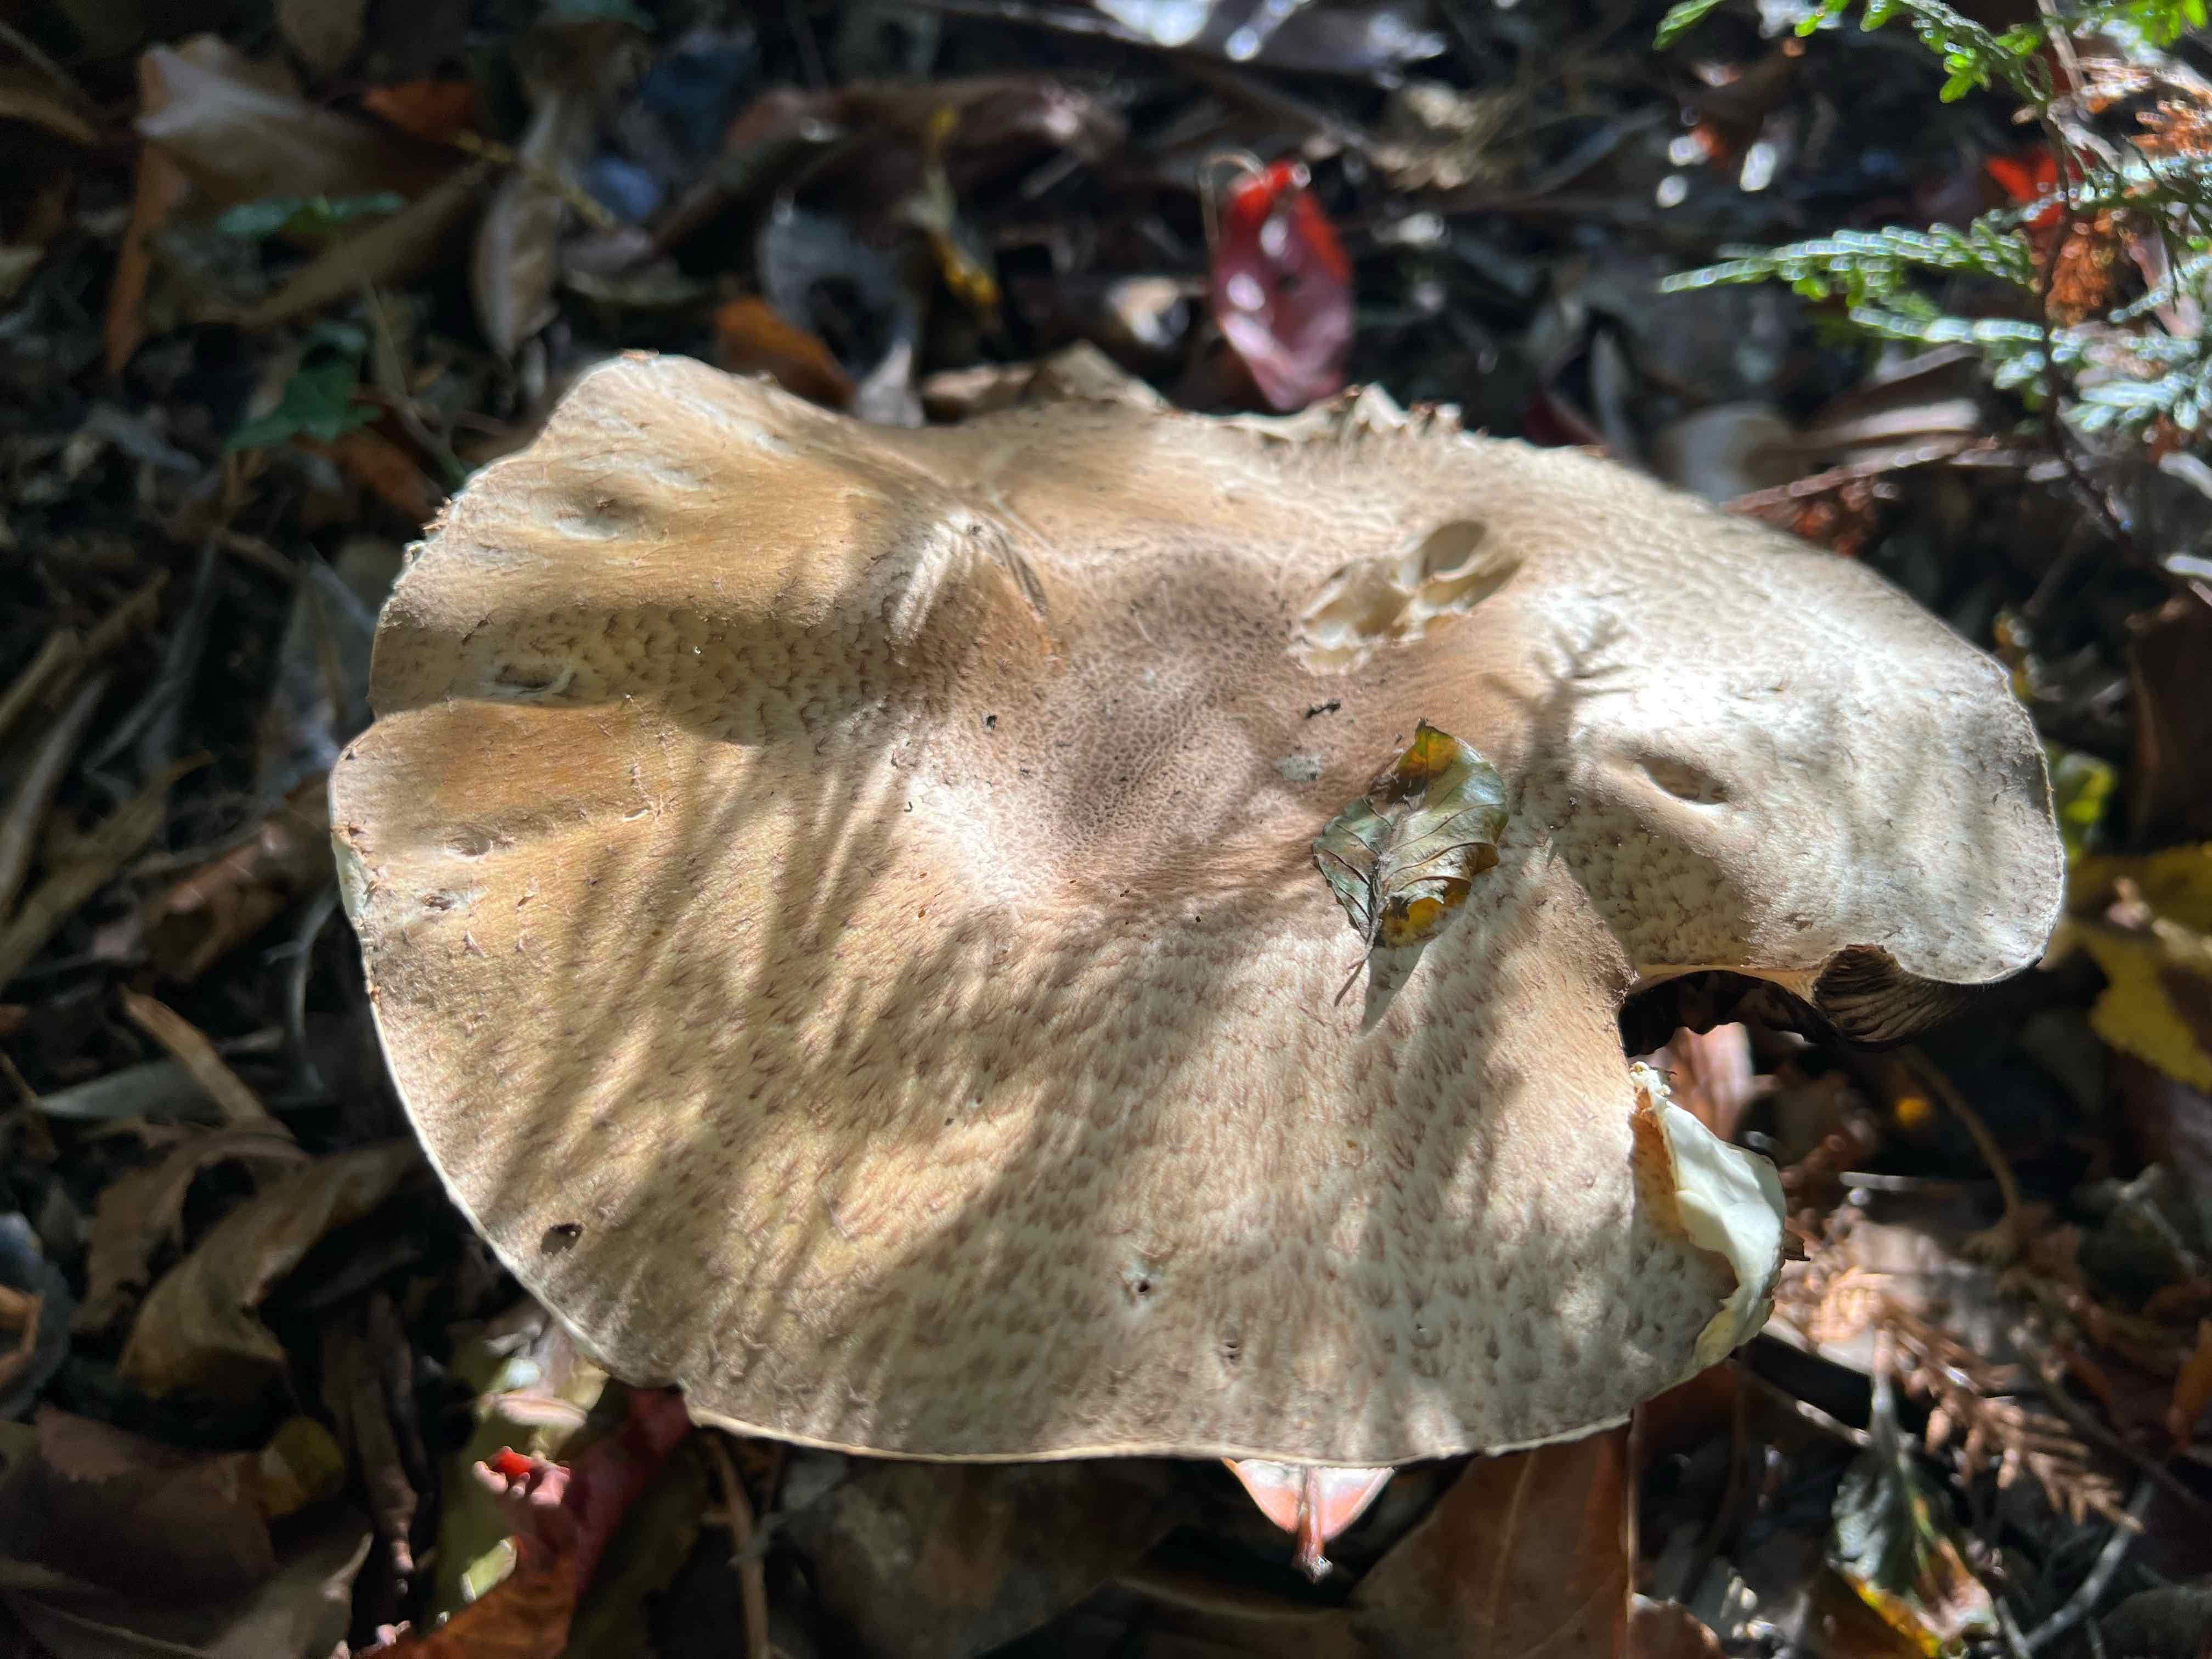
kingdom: Fungi
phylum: Basidiomycota
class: Agaricomycetes
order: Agaricales
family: Agaricaceae
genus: Agaricus
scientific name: Agaricus
